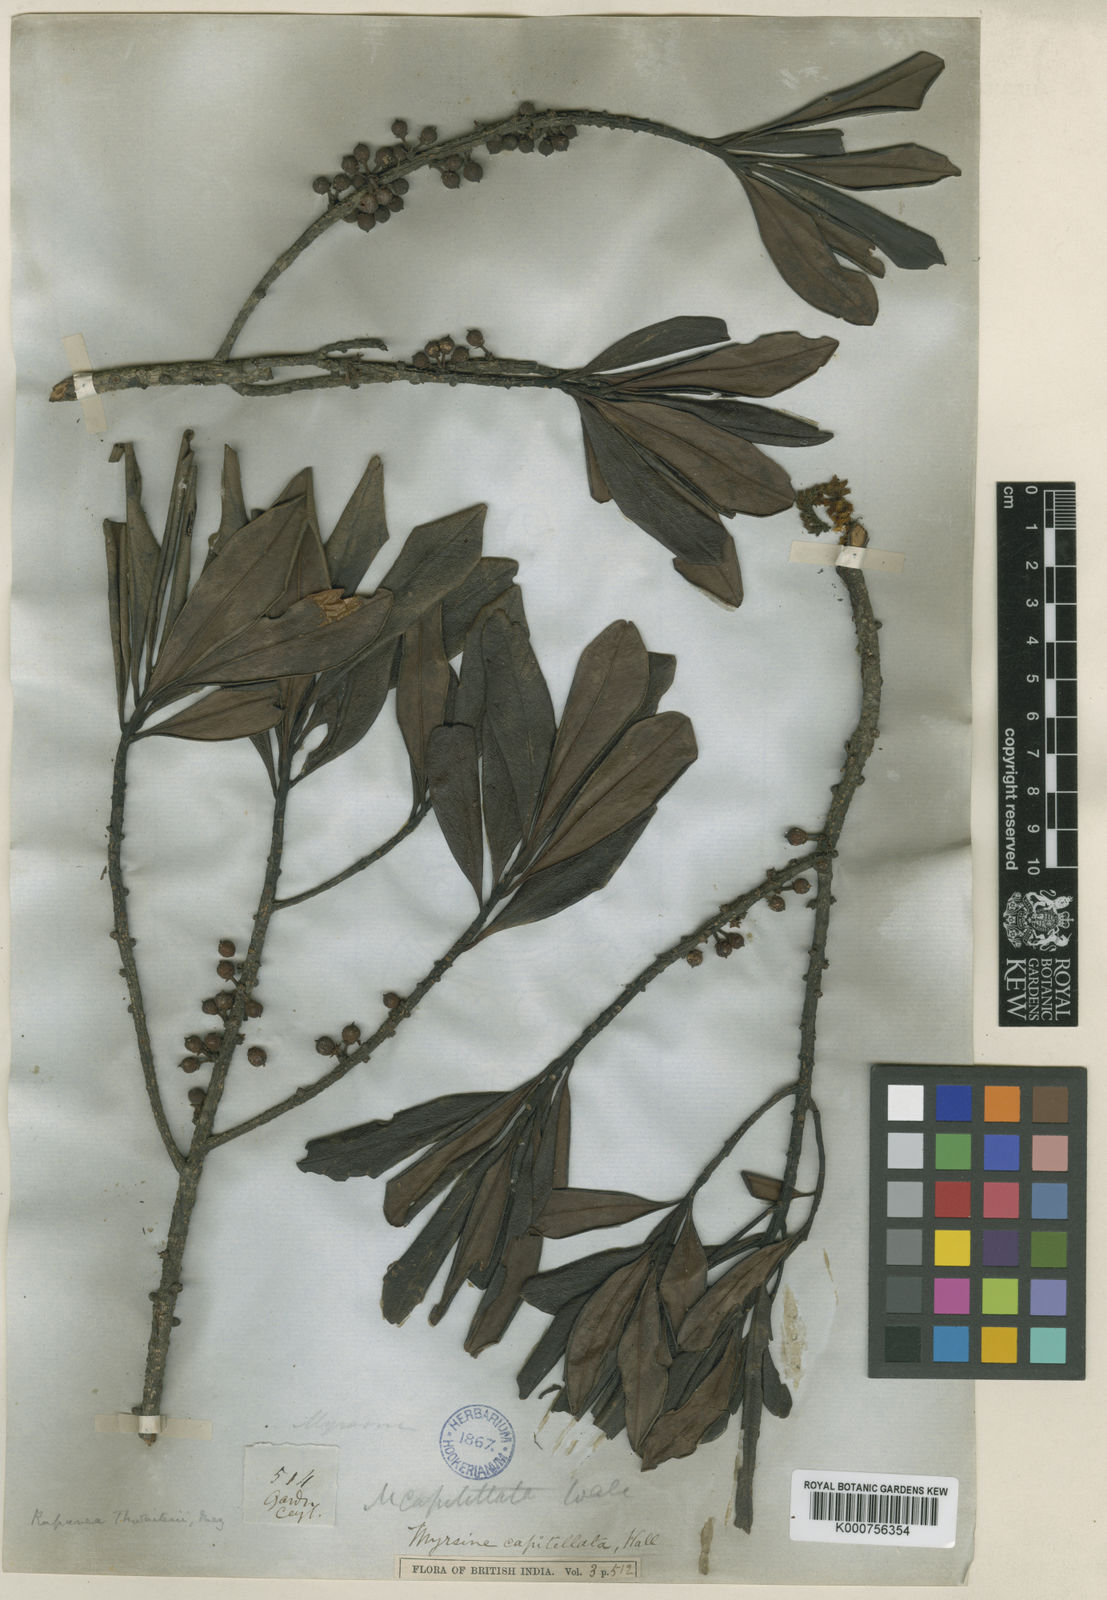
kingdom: Plantae
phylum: Tracheophyta
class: Magnoliopsida
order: Ericales
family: Primulaceae
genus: Myrsine
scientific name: Myrsine thwaitesii
